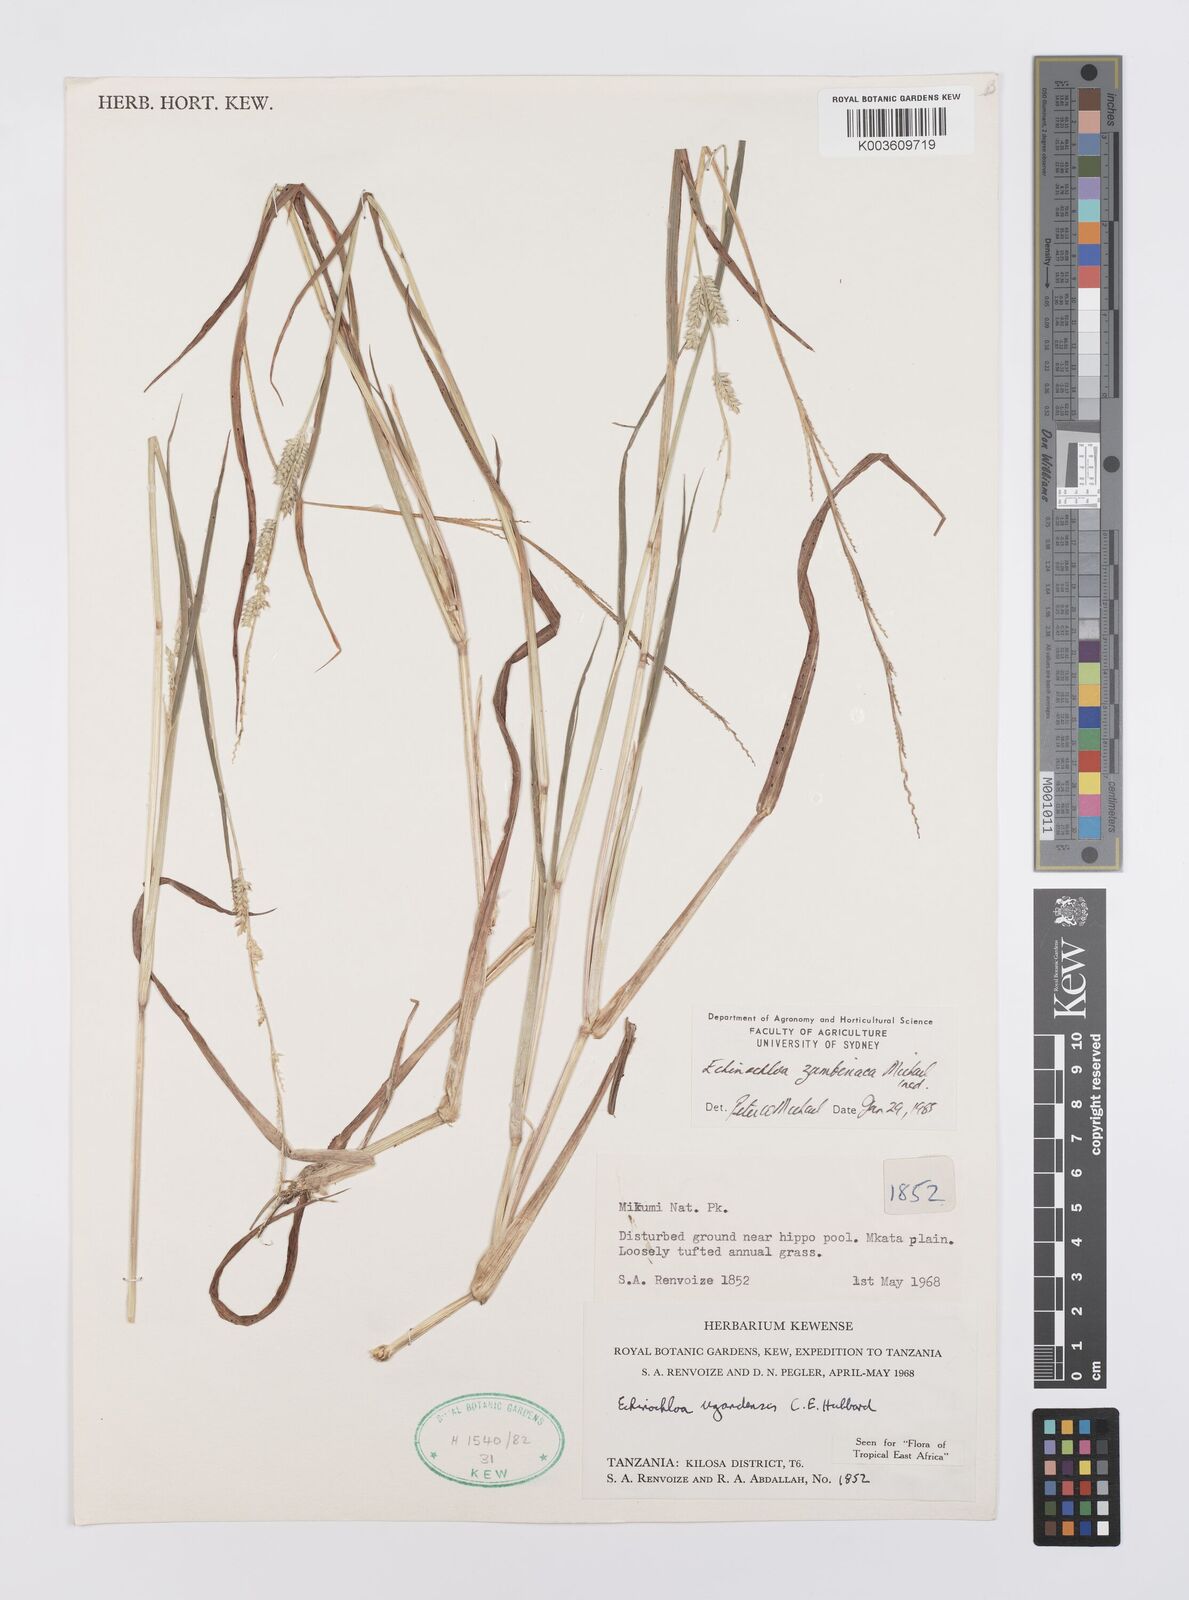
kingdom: Plantae
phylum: Tracheophyta
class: Liliopsida
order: Poales
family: Poaceae
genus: Echinochloa
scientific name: Echinochloa ugandensis
